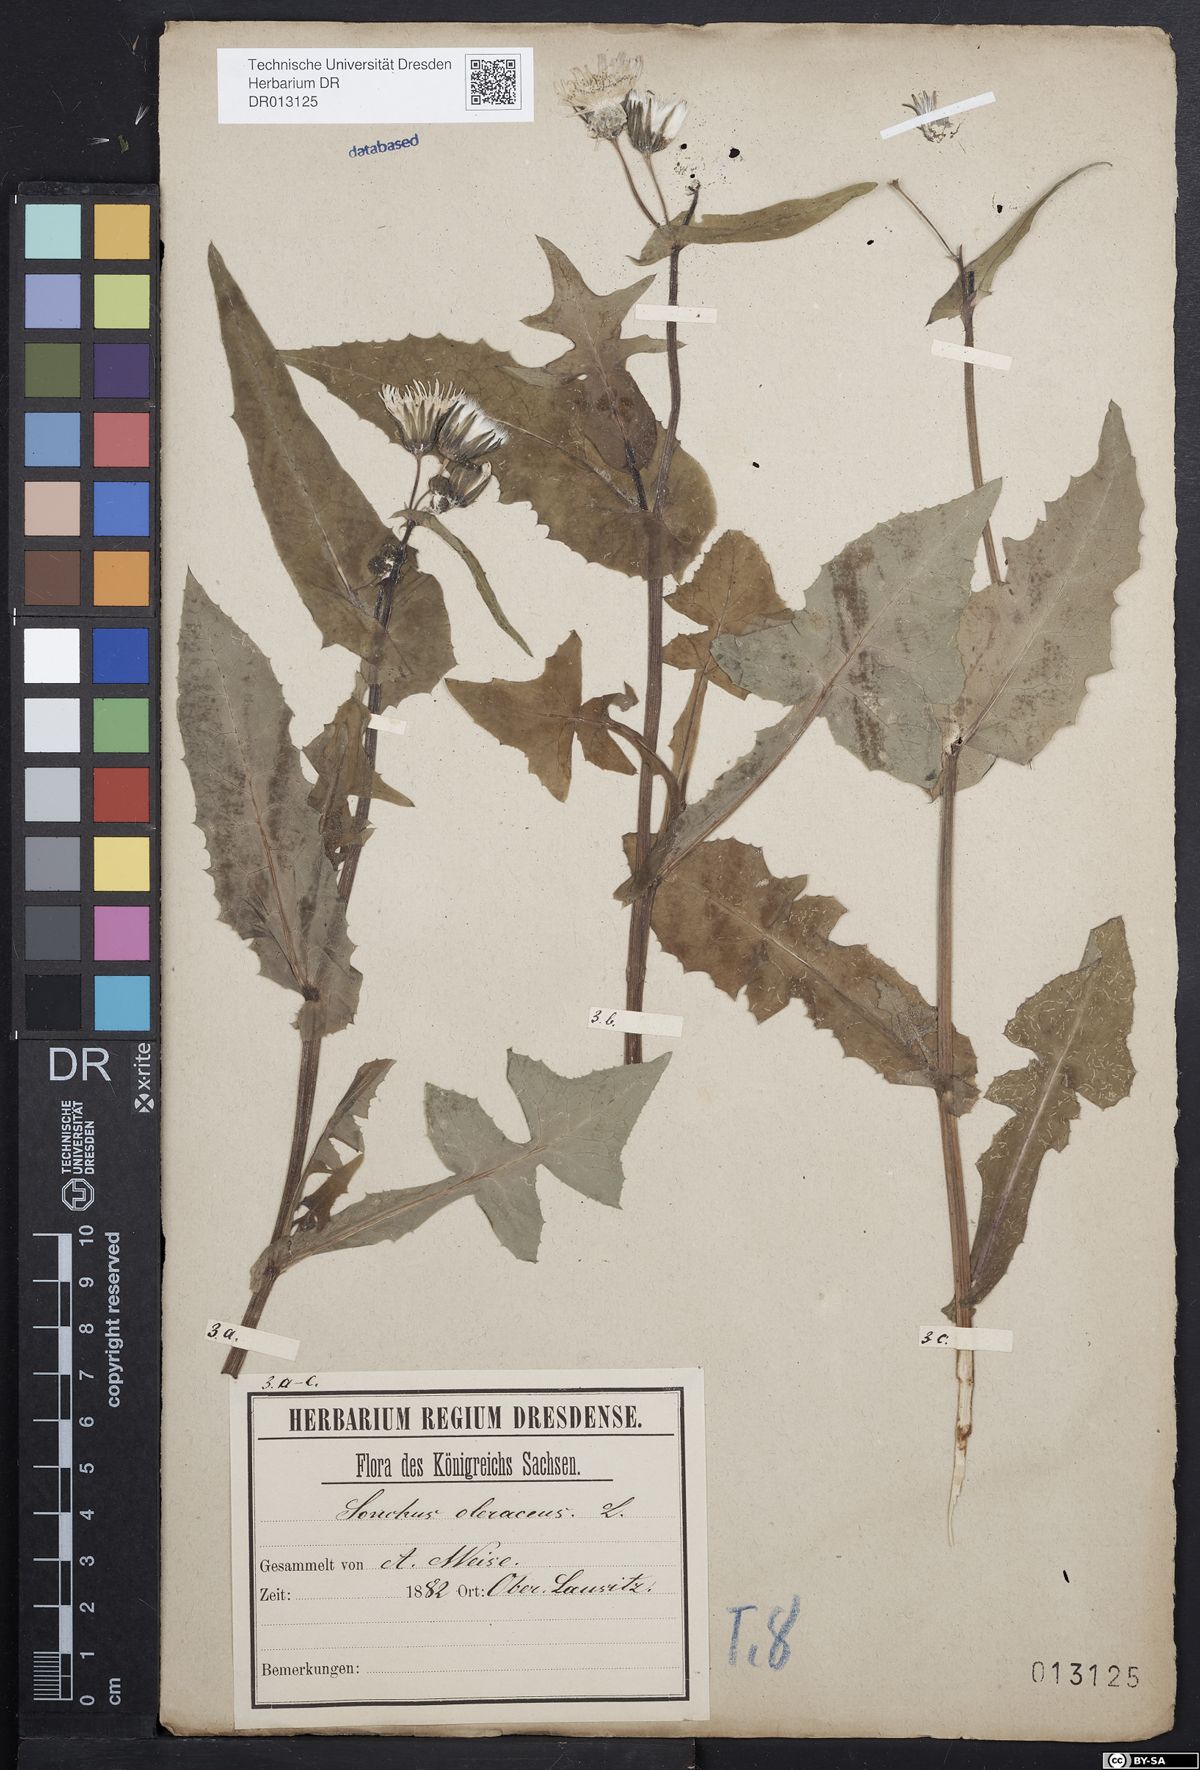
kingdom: Plantae
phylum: Tracheophyta
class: Magnoliopsida
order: Asterales
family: Asteraceae
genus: Sonchus
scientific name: Sonchus oleraceus
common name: Common sowthistle
